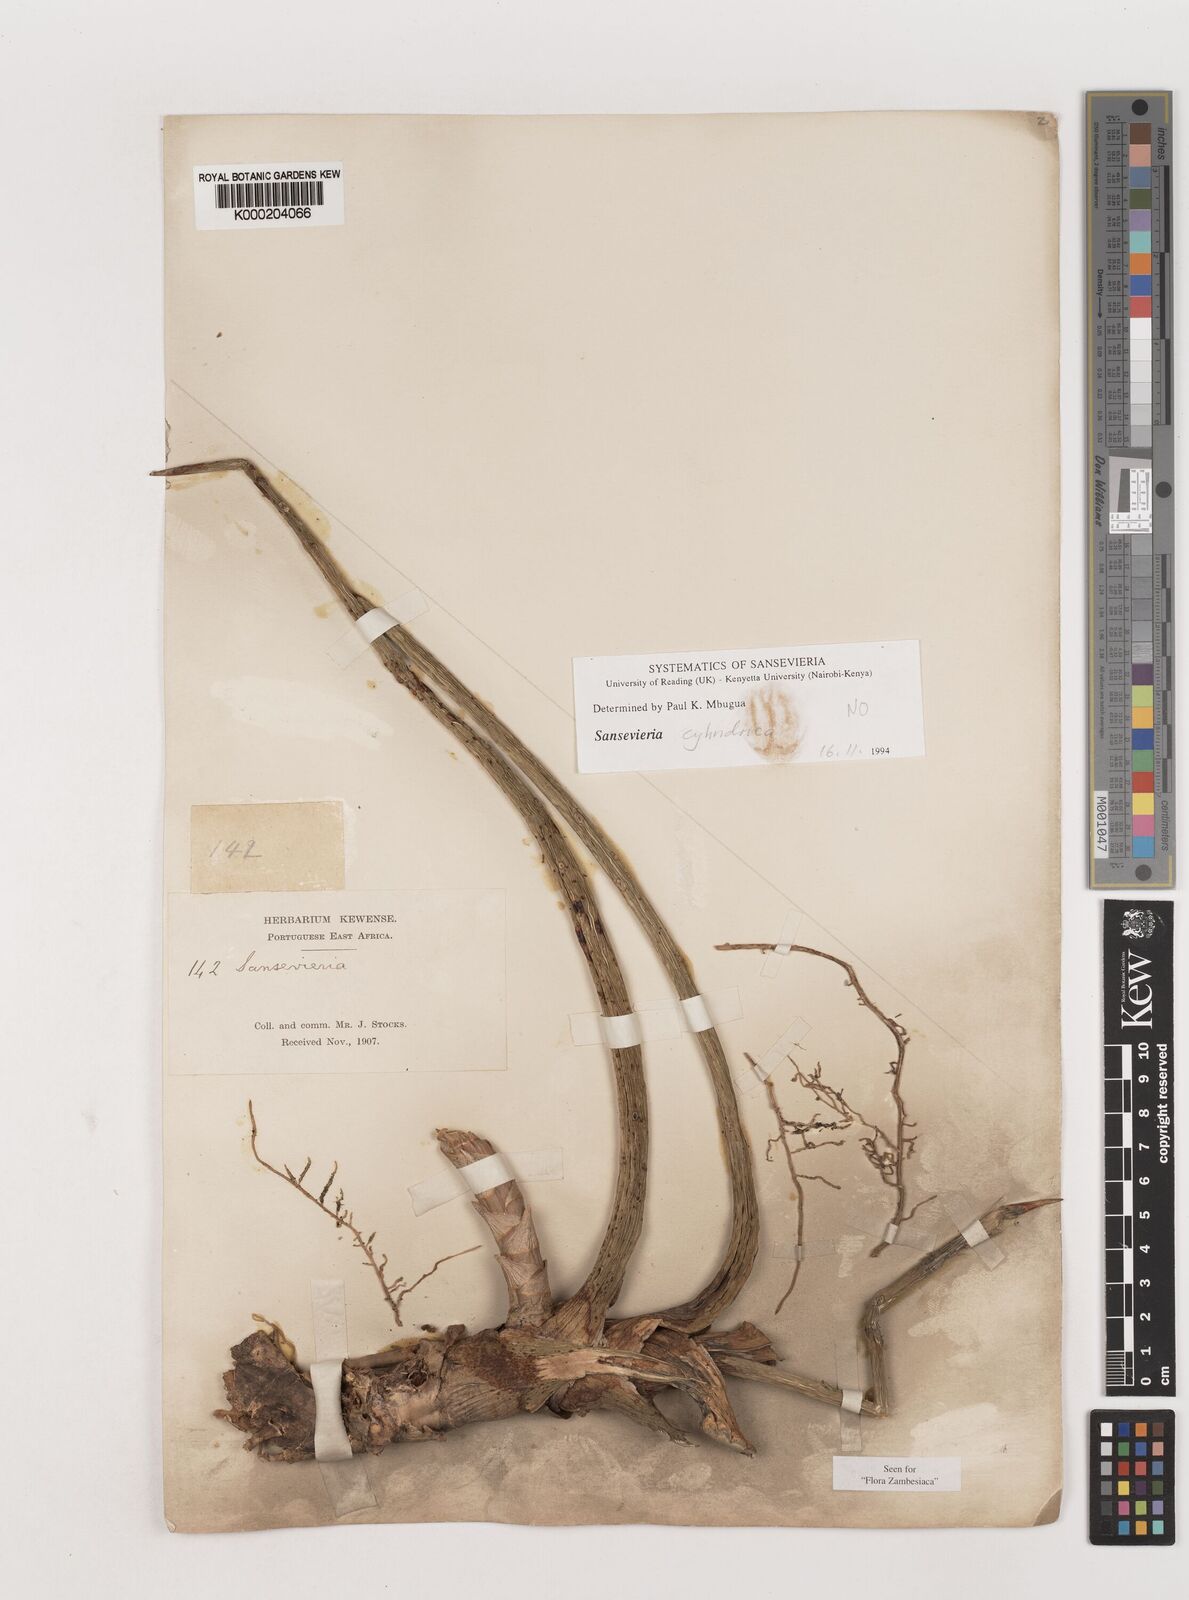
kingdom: Plantae
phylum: Tracheophyta
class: Liliopsida
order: Asparagales
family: Asparagaceae
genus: Dracaena
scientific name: Dracaena canaliculata
